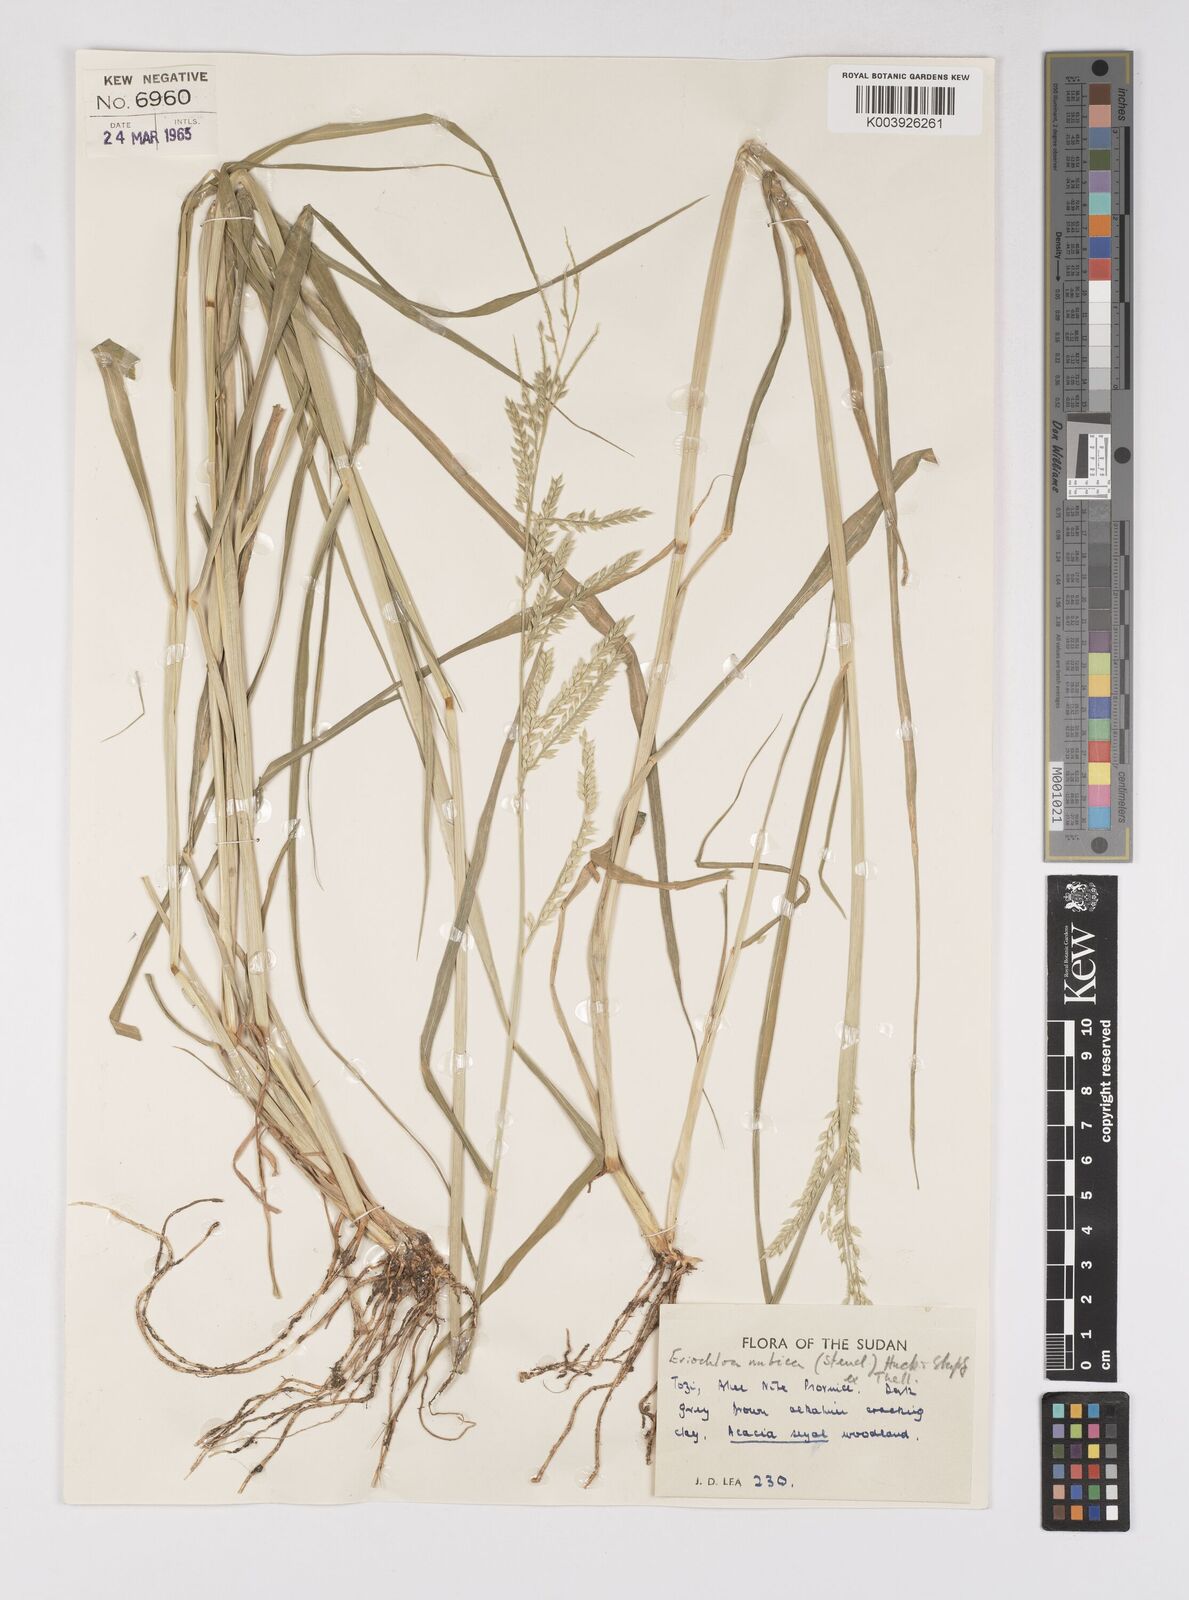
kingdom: Plantae
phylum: Tracheophyta
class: Liliopsida
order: Poales
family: Poaceae
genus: Eriochloa
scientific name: Eriochloa barbatus
